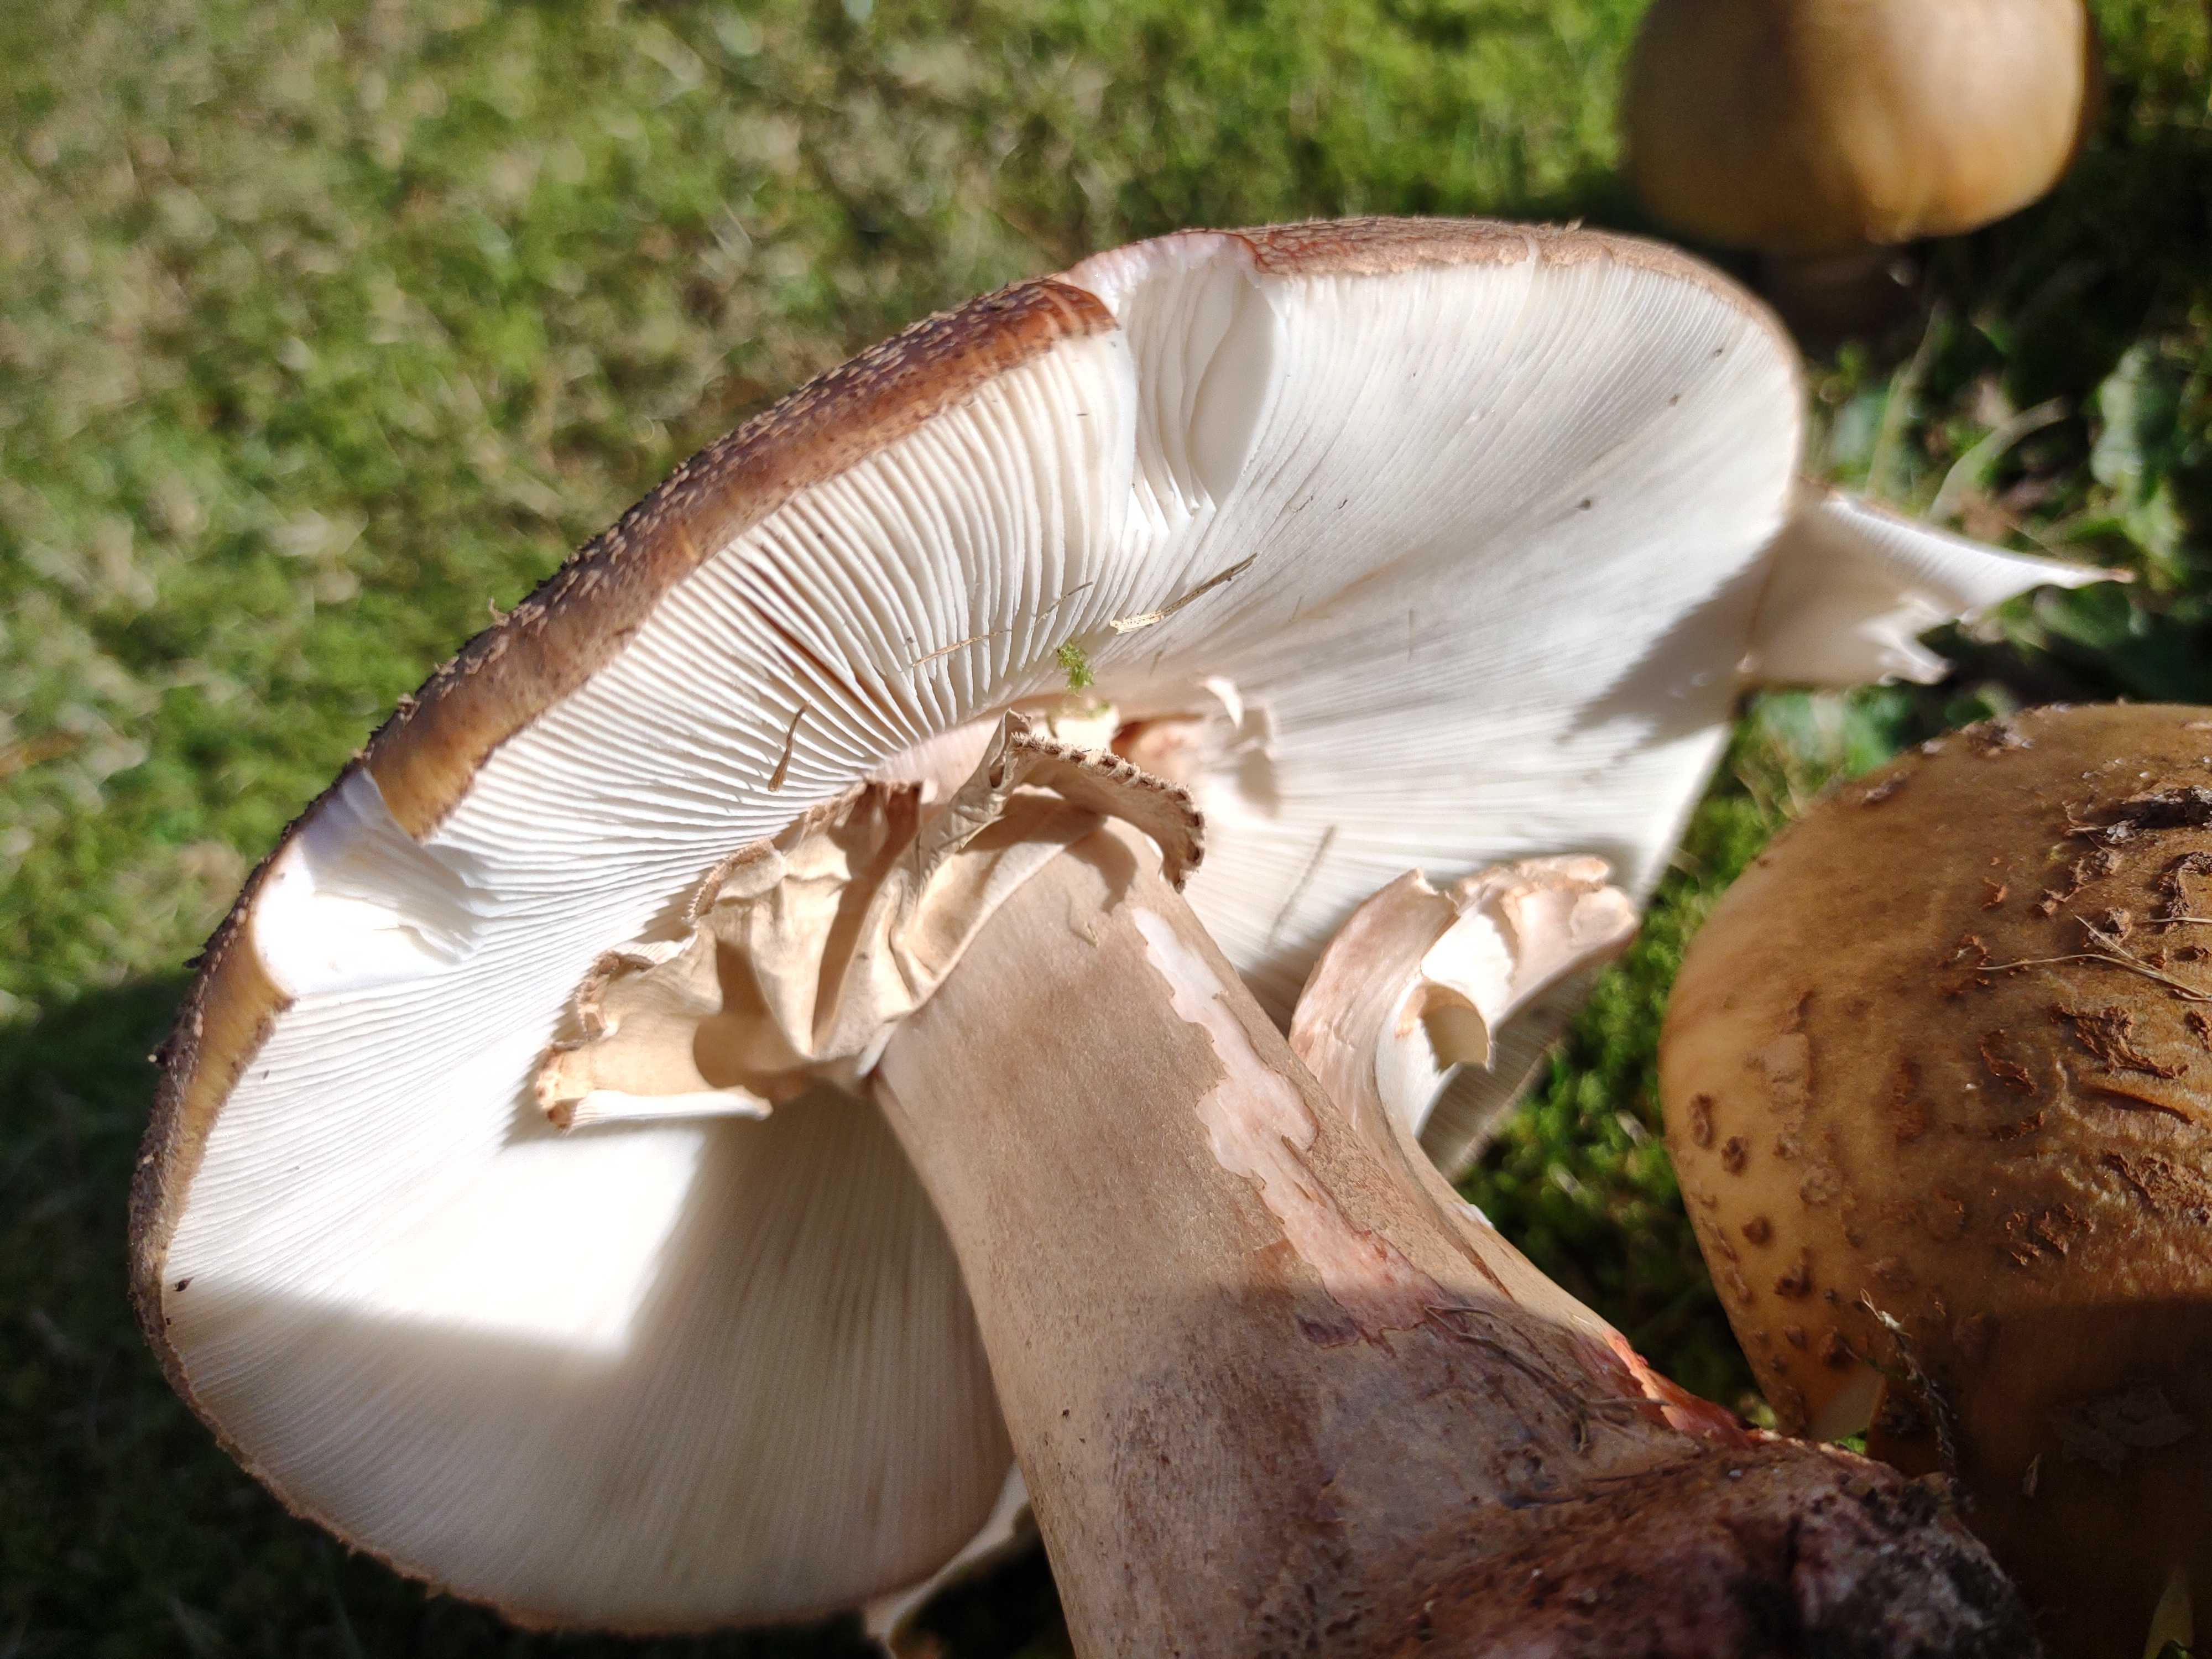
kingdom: Fungi
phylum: Basidiomycota
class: Agaricomycetes
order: Agaricales
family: Amanitaceae
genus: Amanita
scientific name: Amanita rubescens
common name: rødmende fluesvamp
